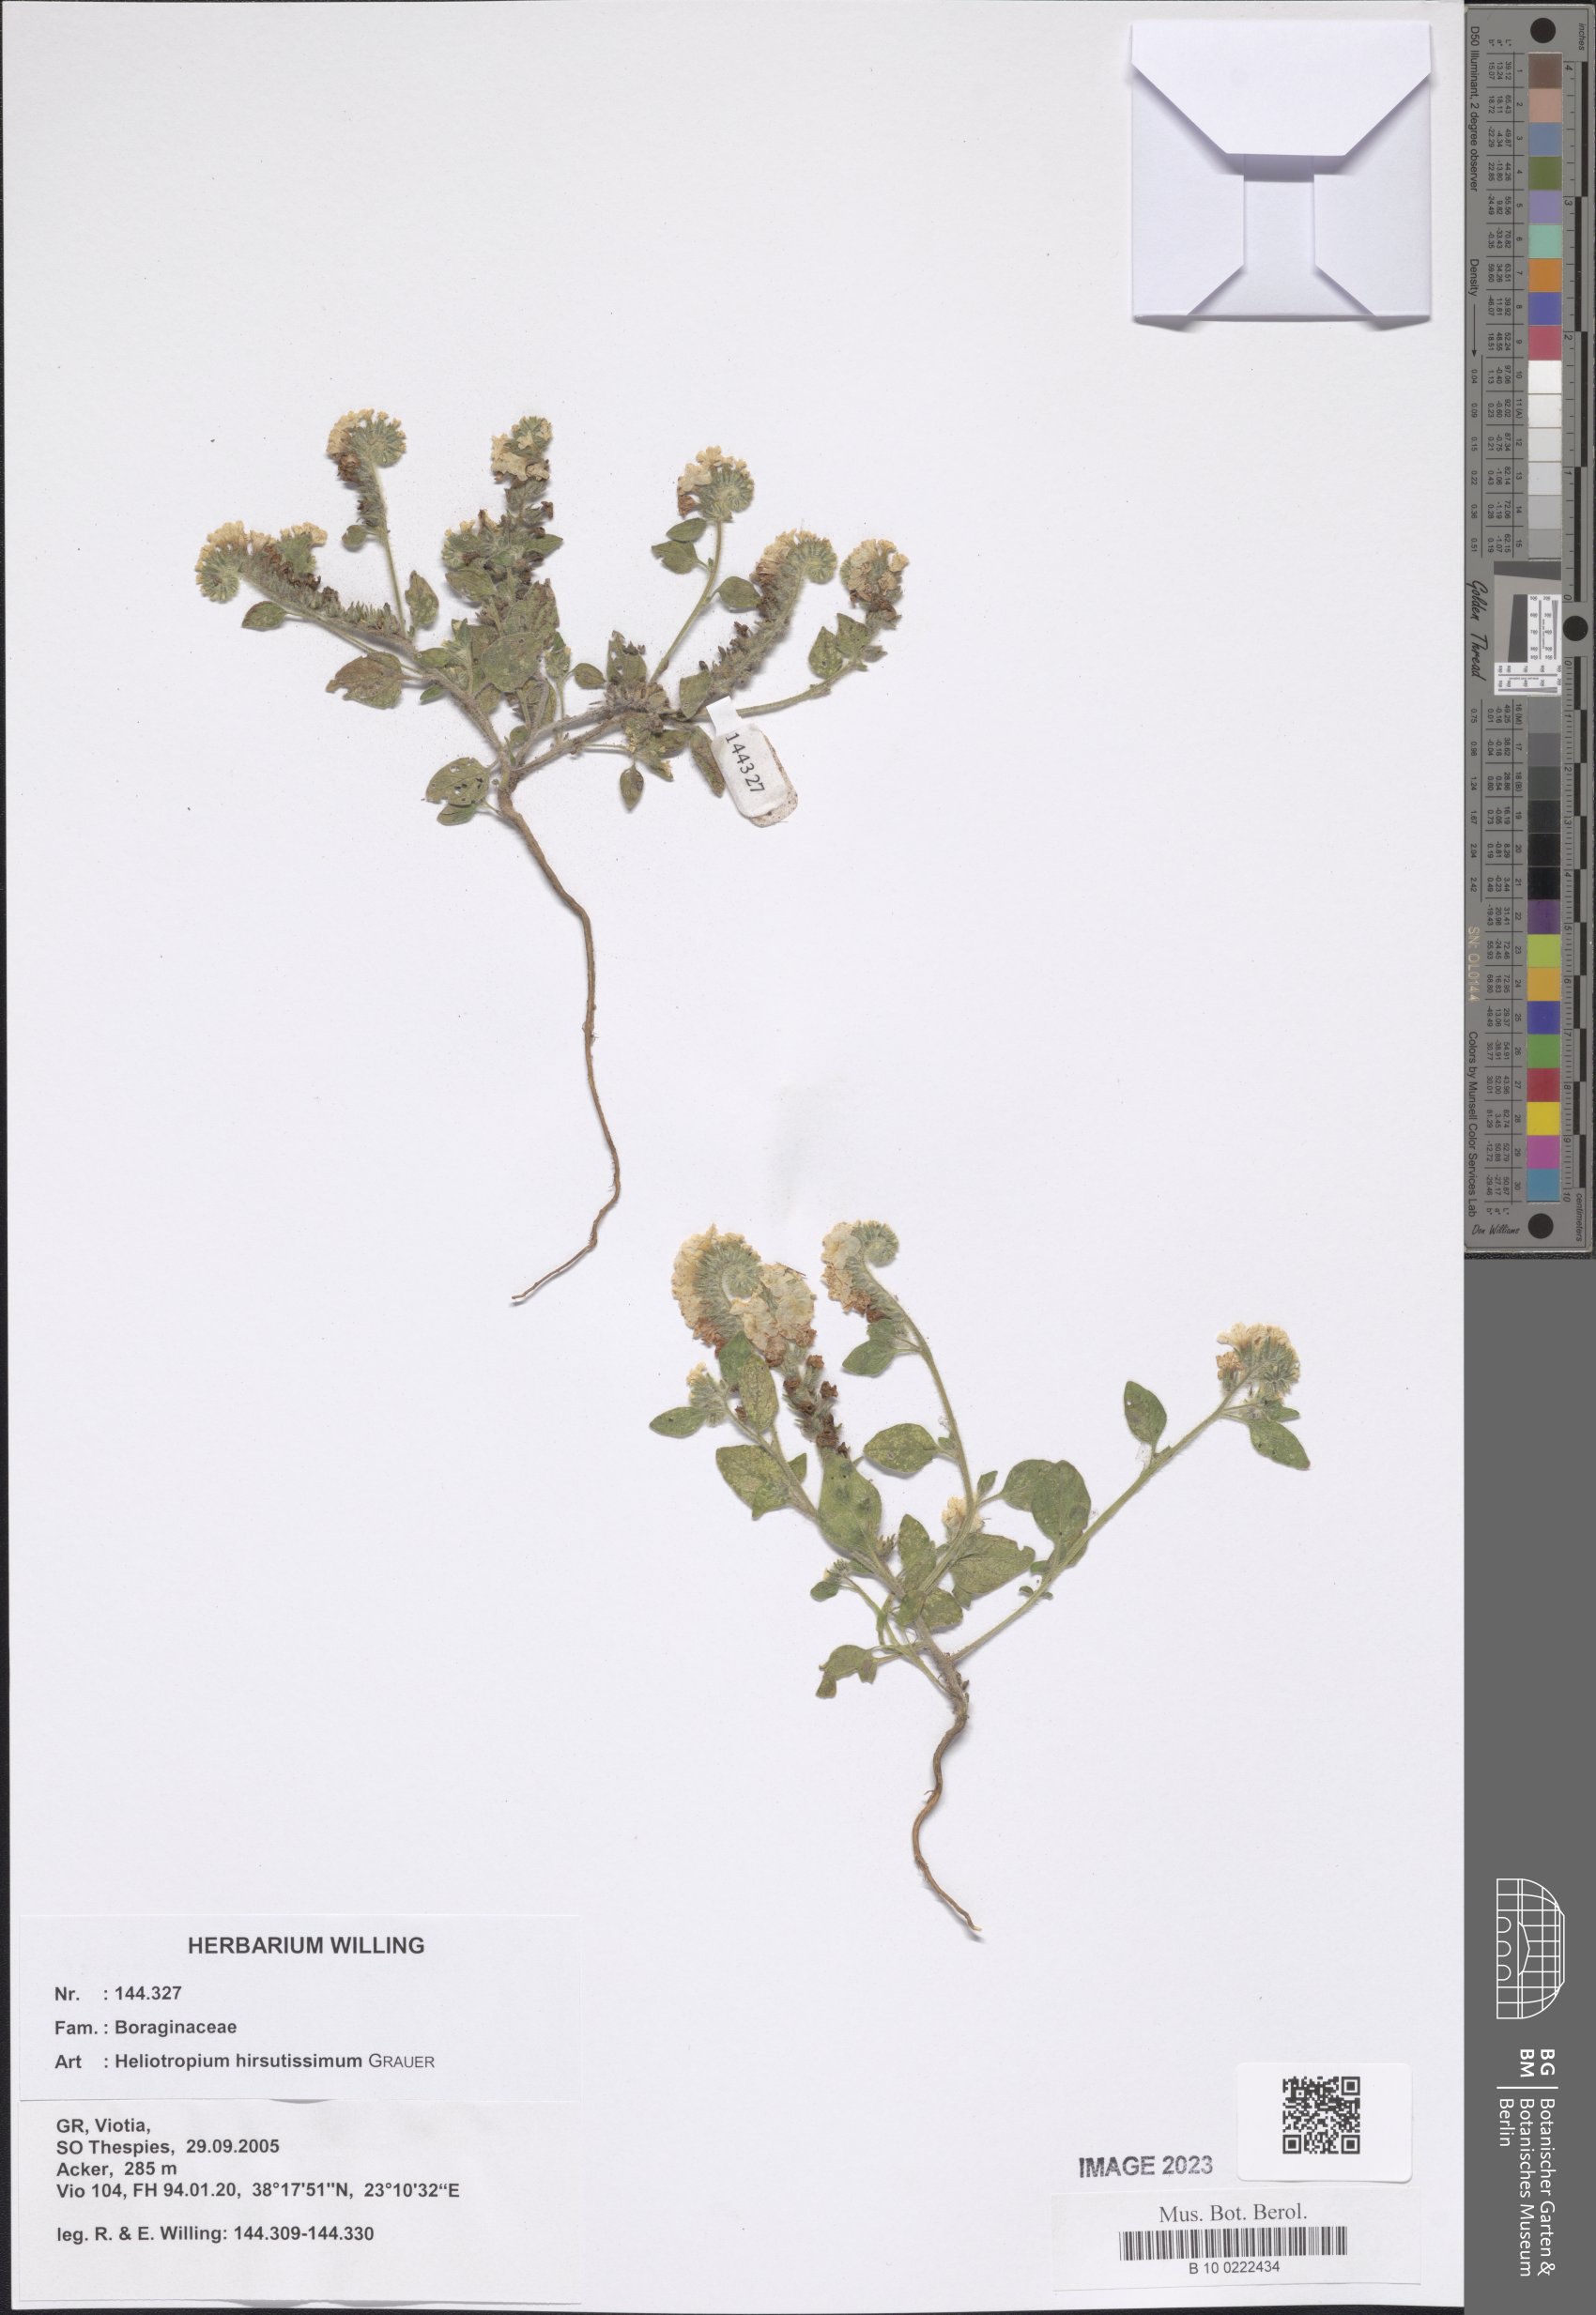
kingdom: Plantae
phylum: Tracheophyta
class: Magnoliopsida
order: Boraginales
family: Heliotropiaceae
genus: Heliotropium
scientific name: Heliotropium hirsutissimum
